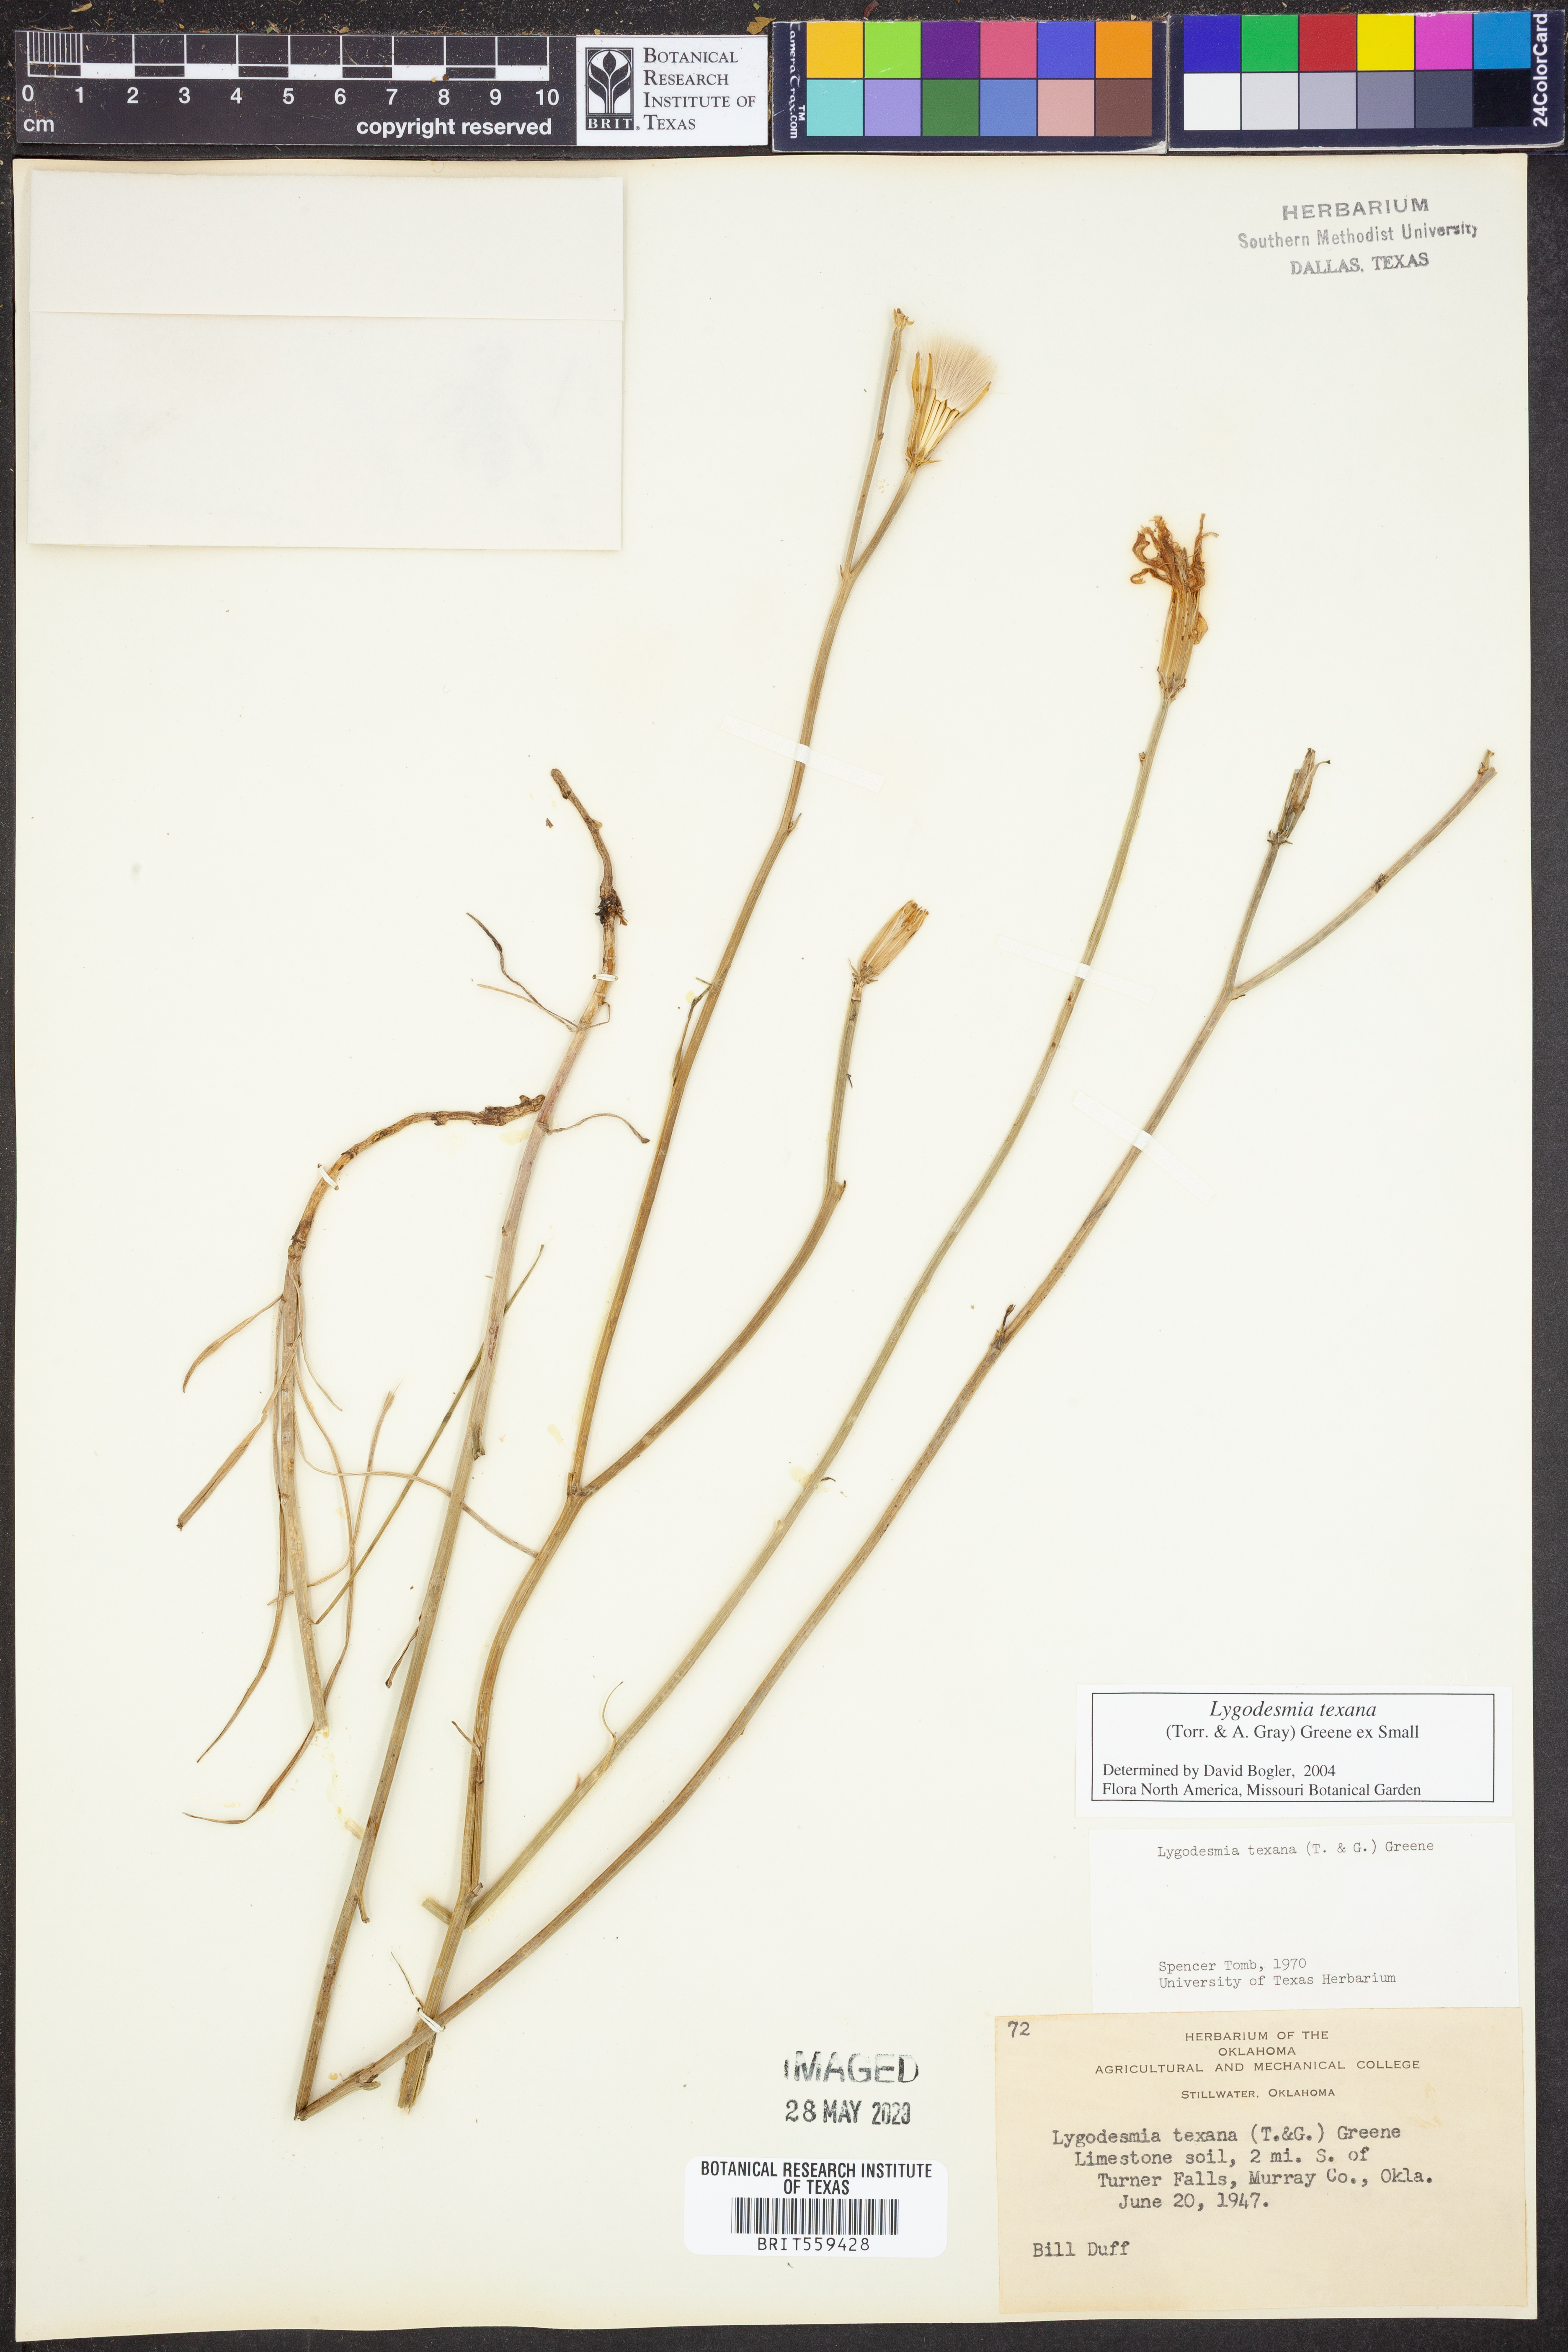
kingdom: Plantae
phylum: Tracheophyta
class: Magnoliopsida
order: Asterales
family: Asteraceae
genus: Lygodesmia
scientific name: Lygodesmia texana
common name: Texas skeleton-plant
